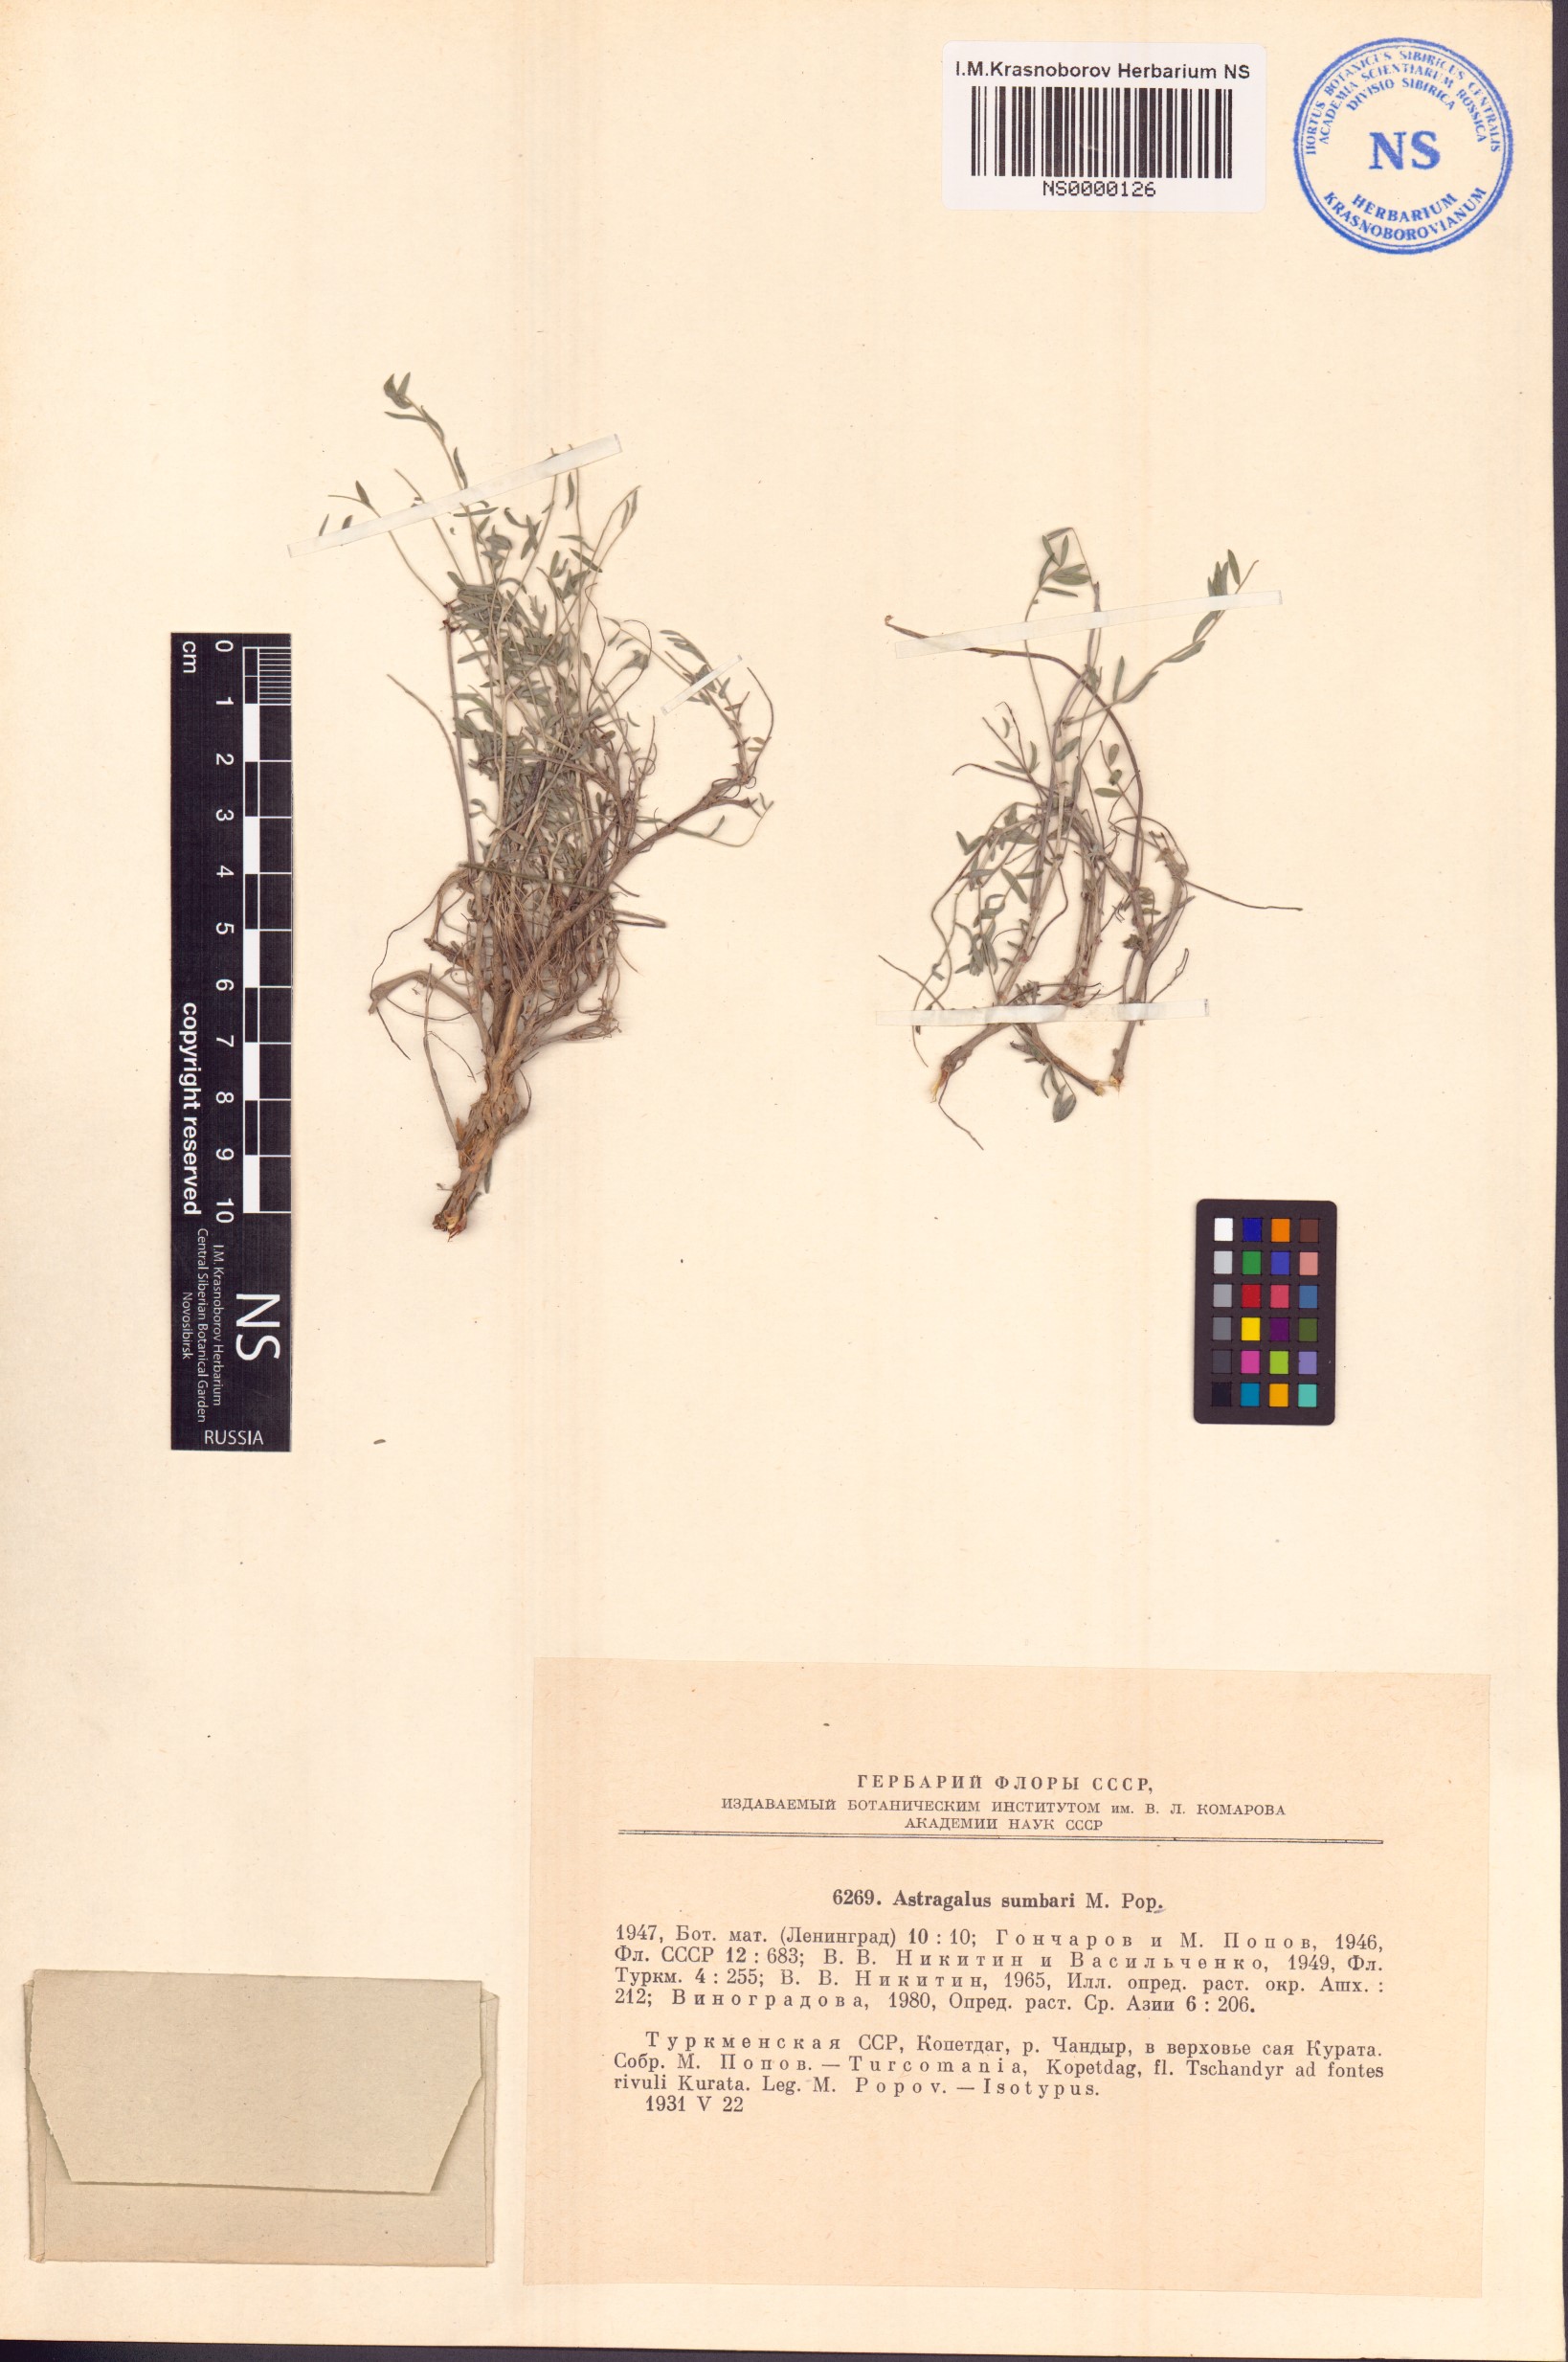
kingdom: Plantae
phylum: Tracheophyta
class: Magnoliopsida
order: Fabales
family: Fabaceae
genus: Astragalus
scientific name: Astragalus sumbari
